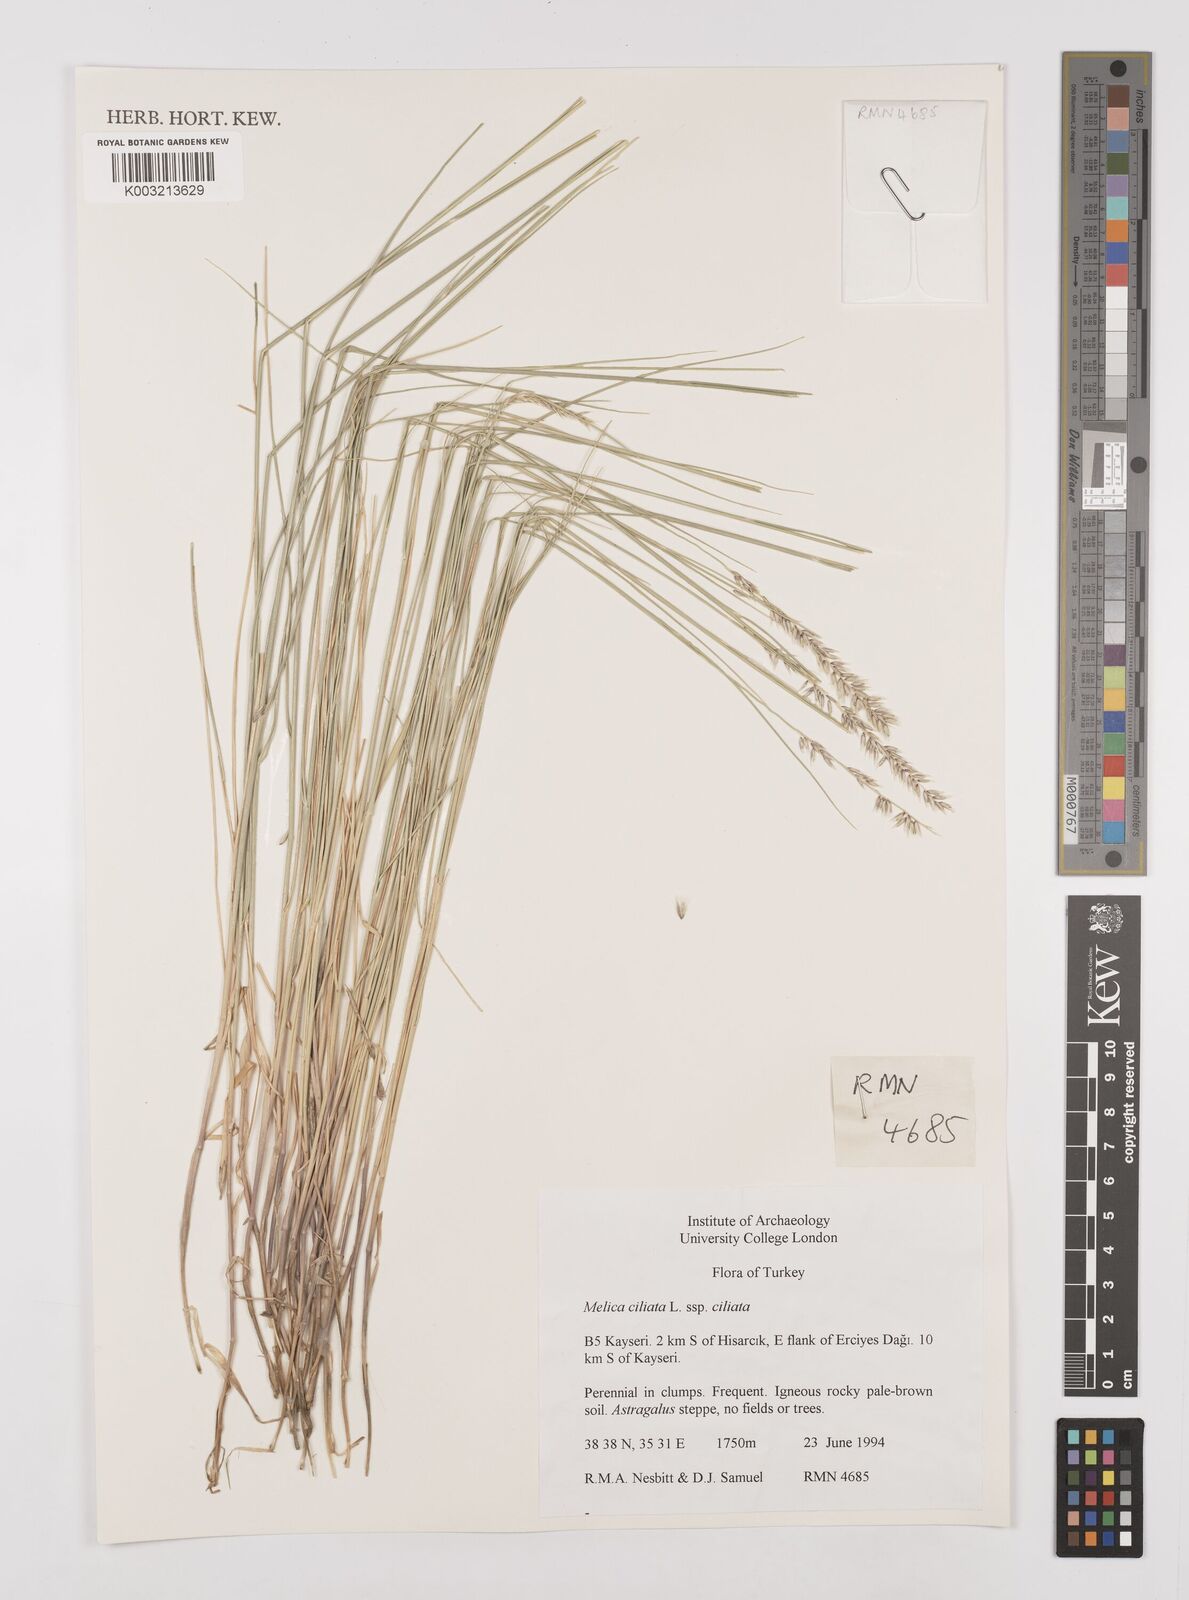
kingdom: Plantae
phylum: Tracheophyta
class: Liliopsida
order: Poales
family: Poaceae
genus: Melica
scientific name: Melica ciliata
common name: Hairy melicgrass
